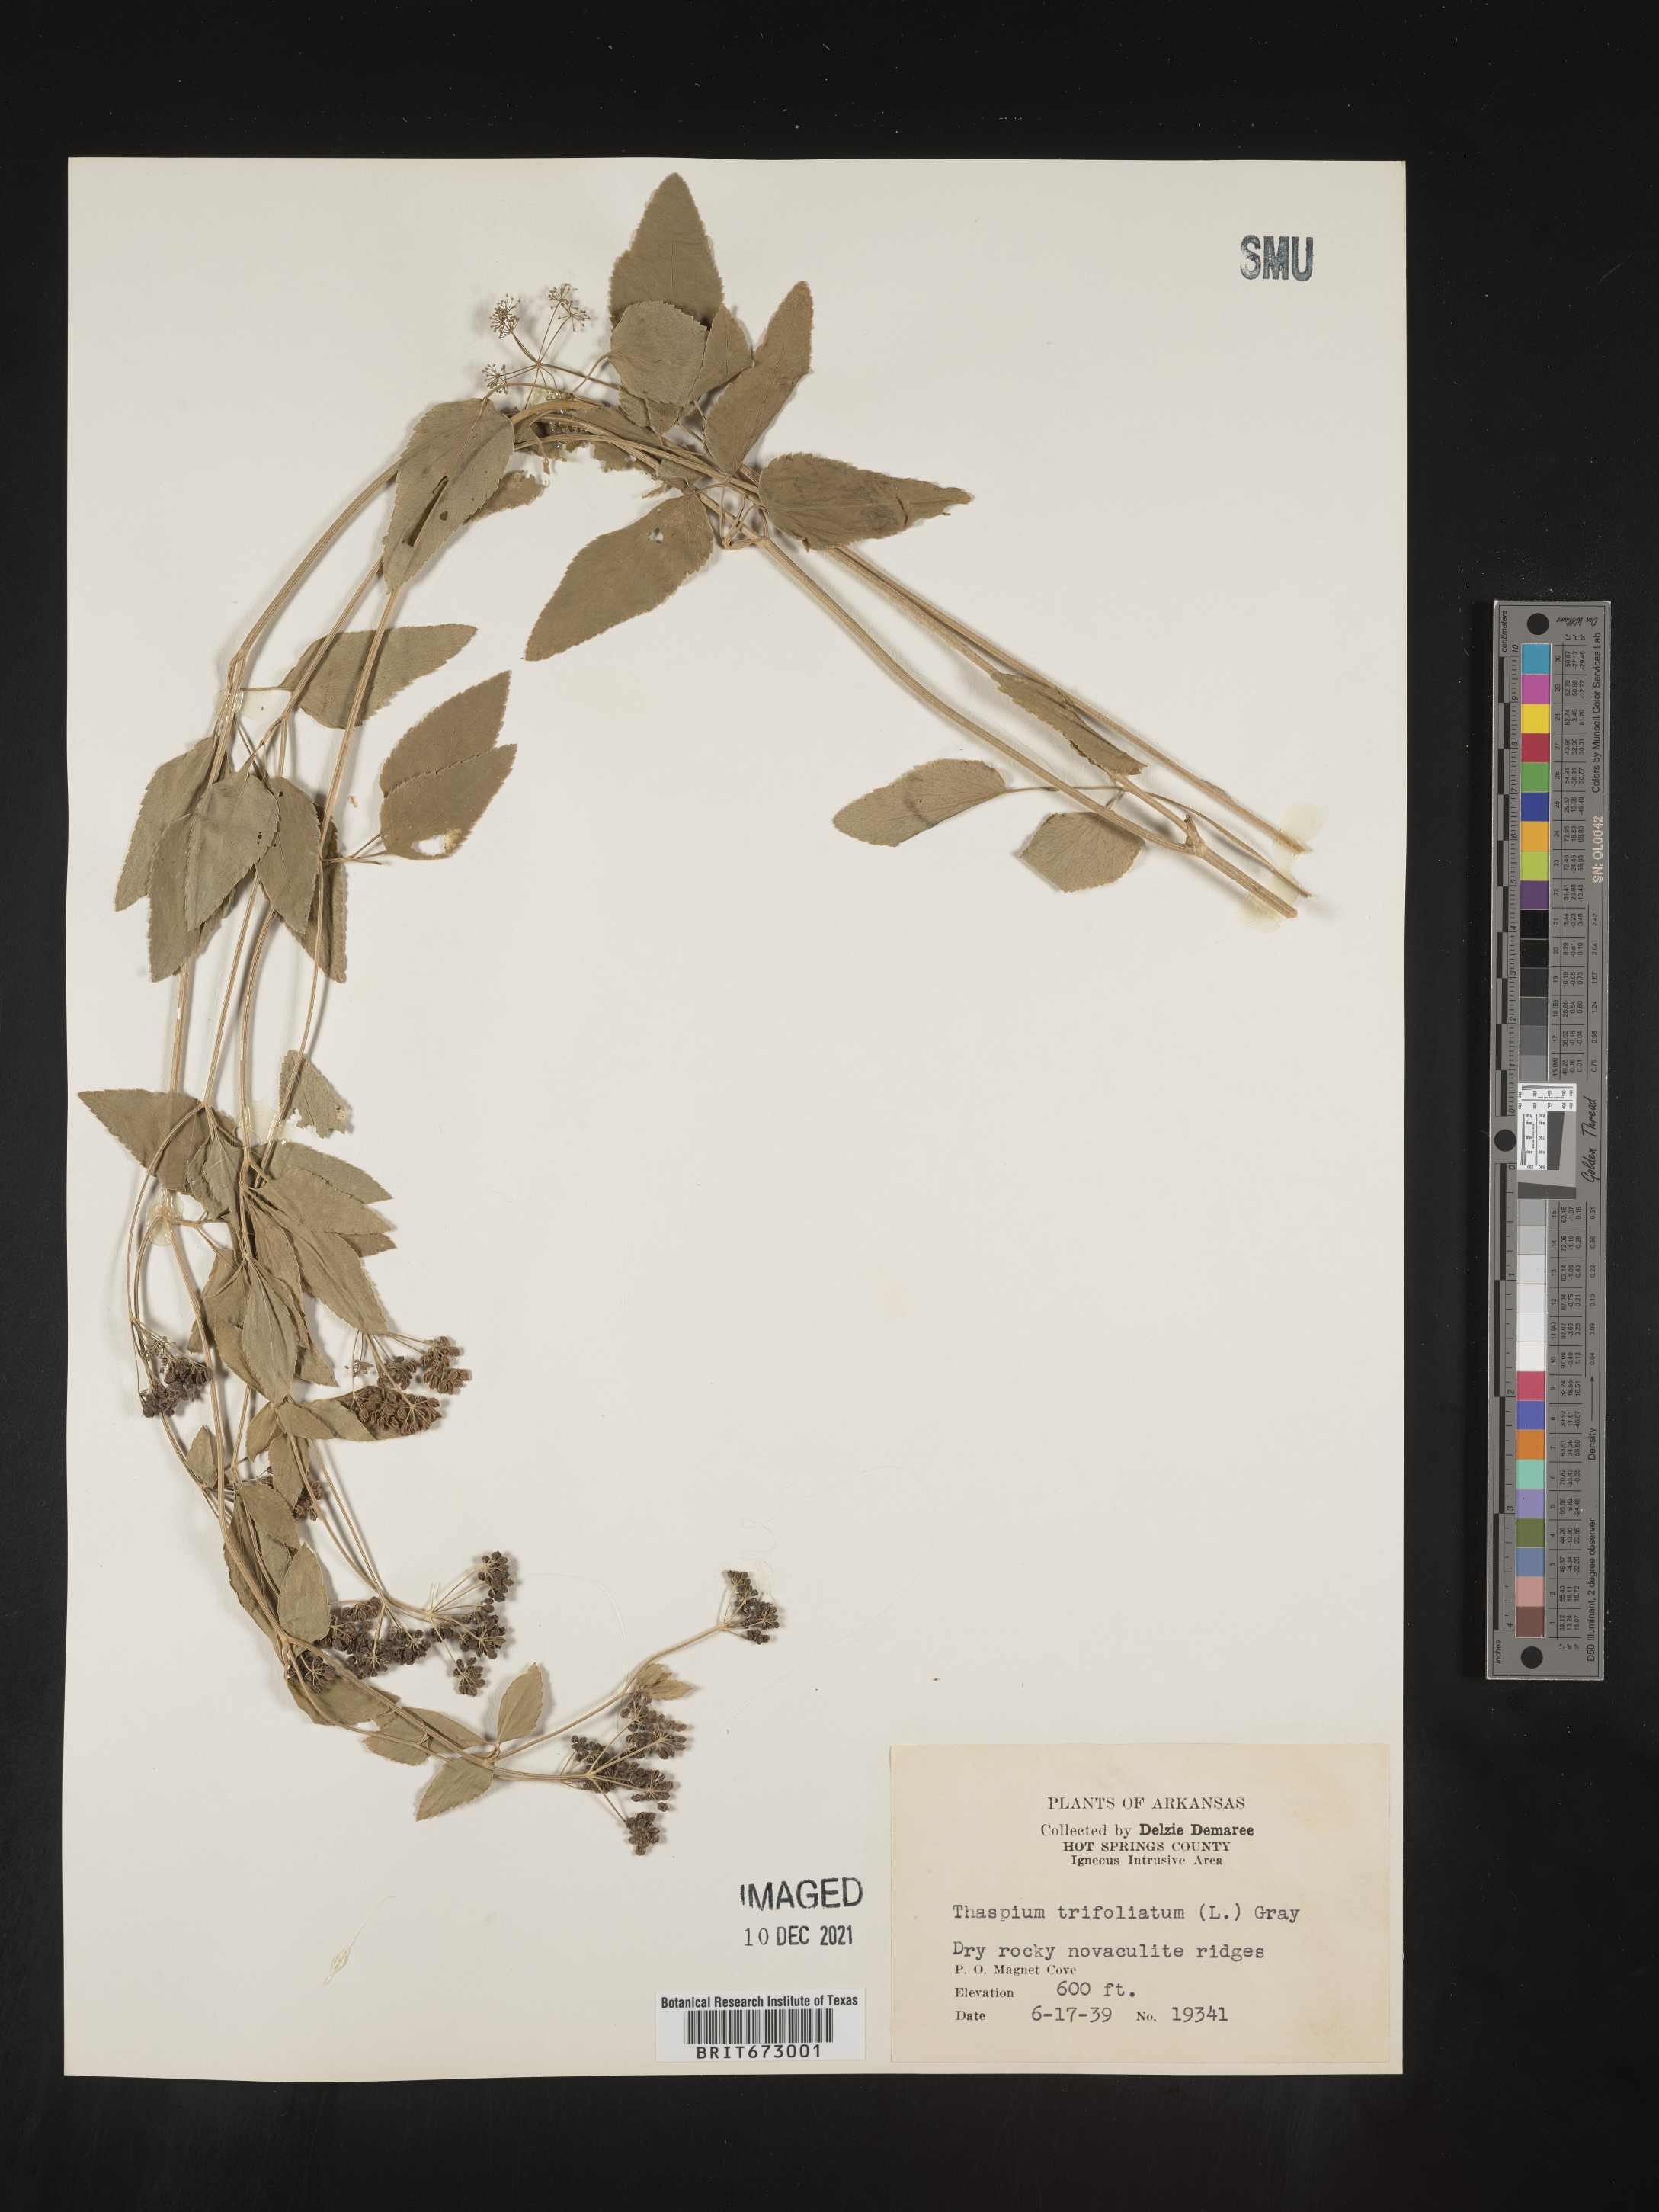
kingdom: Plantae
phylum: Tracheophyta
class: Magnoliopsida
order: Apiales
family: Apiaceae
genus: Thaspium
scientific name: Thaspium
